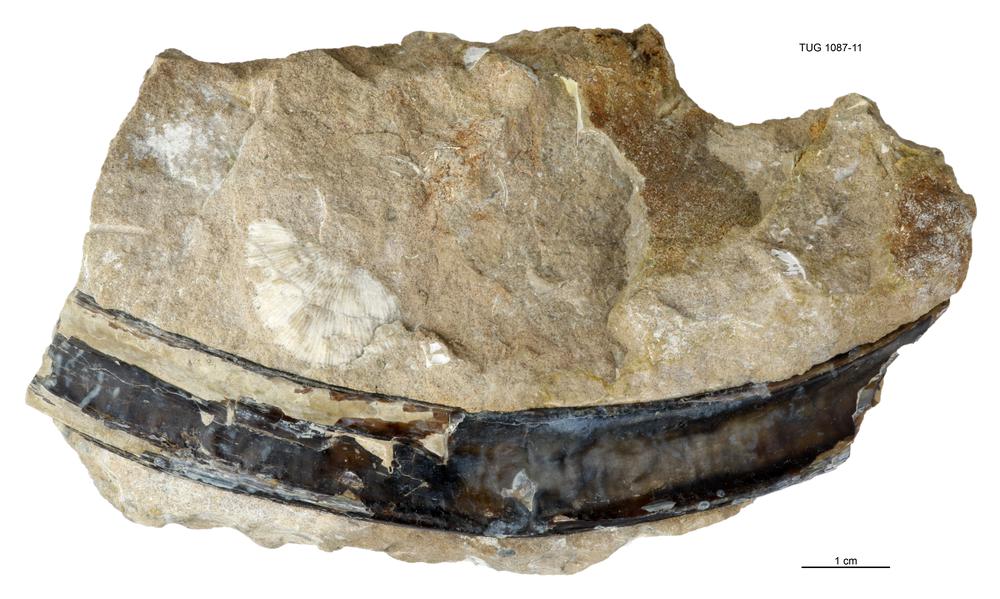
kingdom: Animalia
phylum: Cnidaria
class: Scyphozoa
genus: Sphenothallus
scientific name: Sphenothallus
